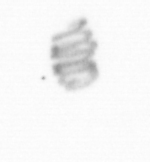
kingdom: Chromista
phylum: Ochrophyta
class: Bacillariophyceae
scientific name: Bacillariophyceae
